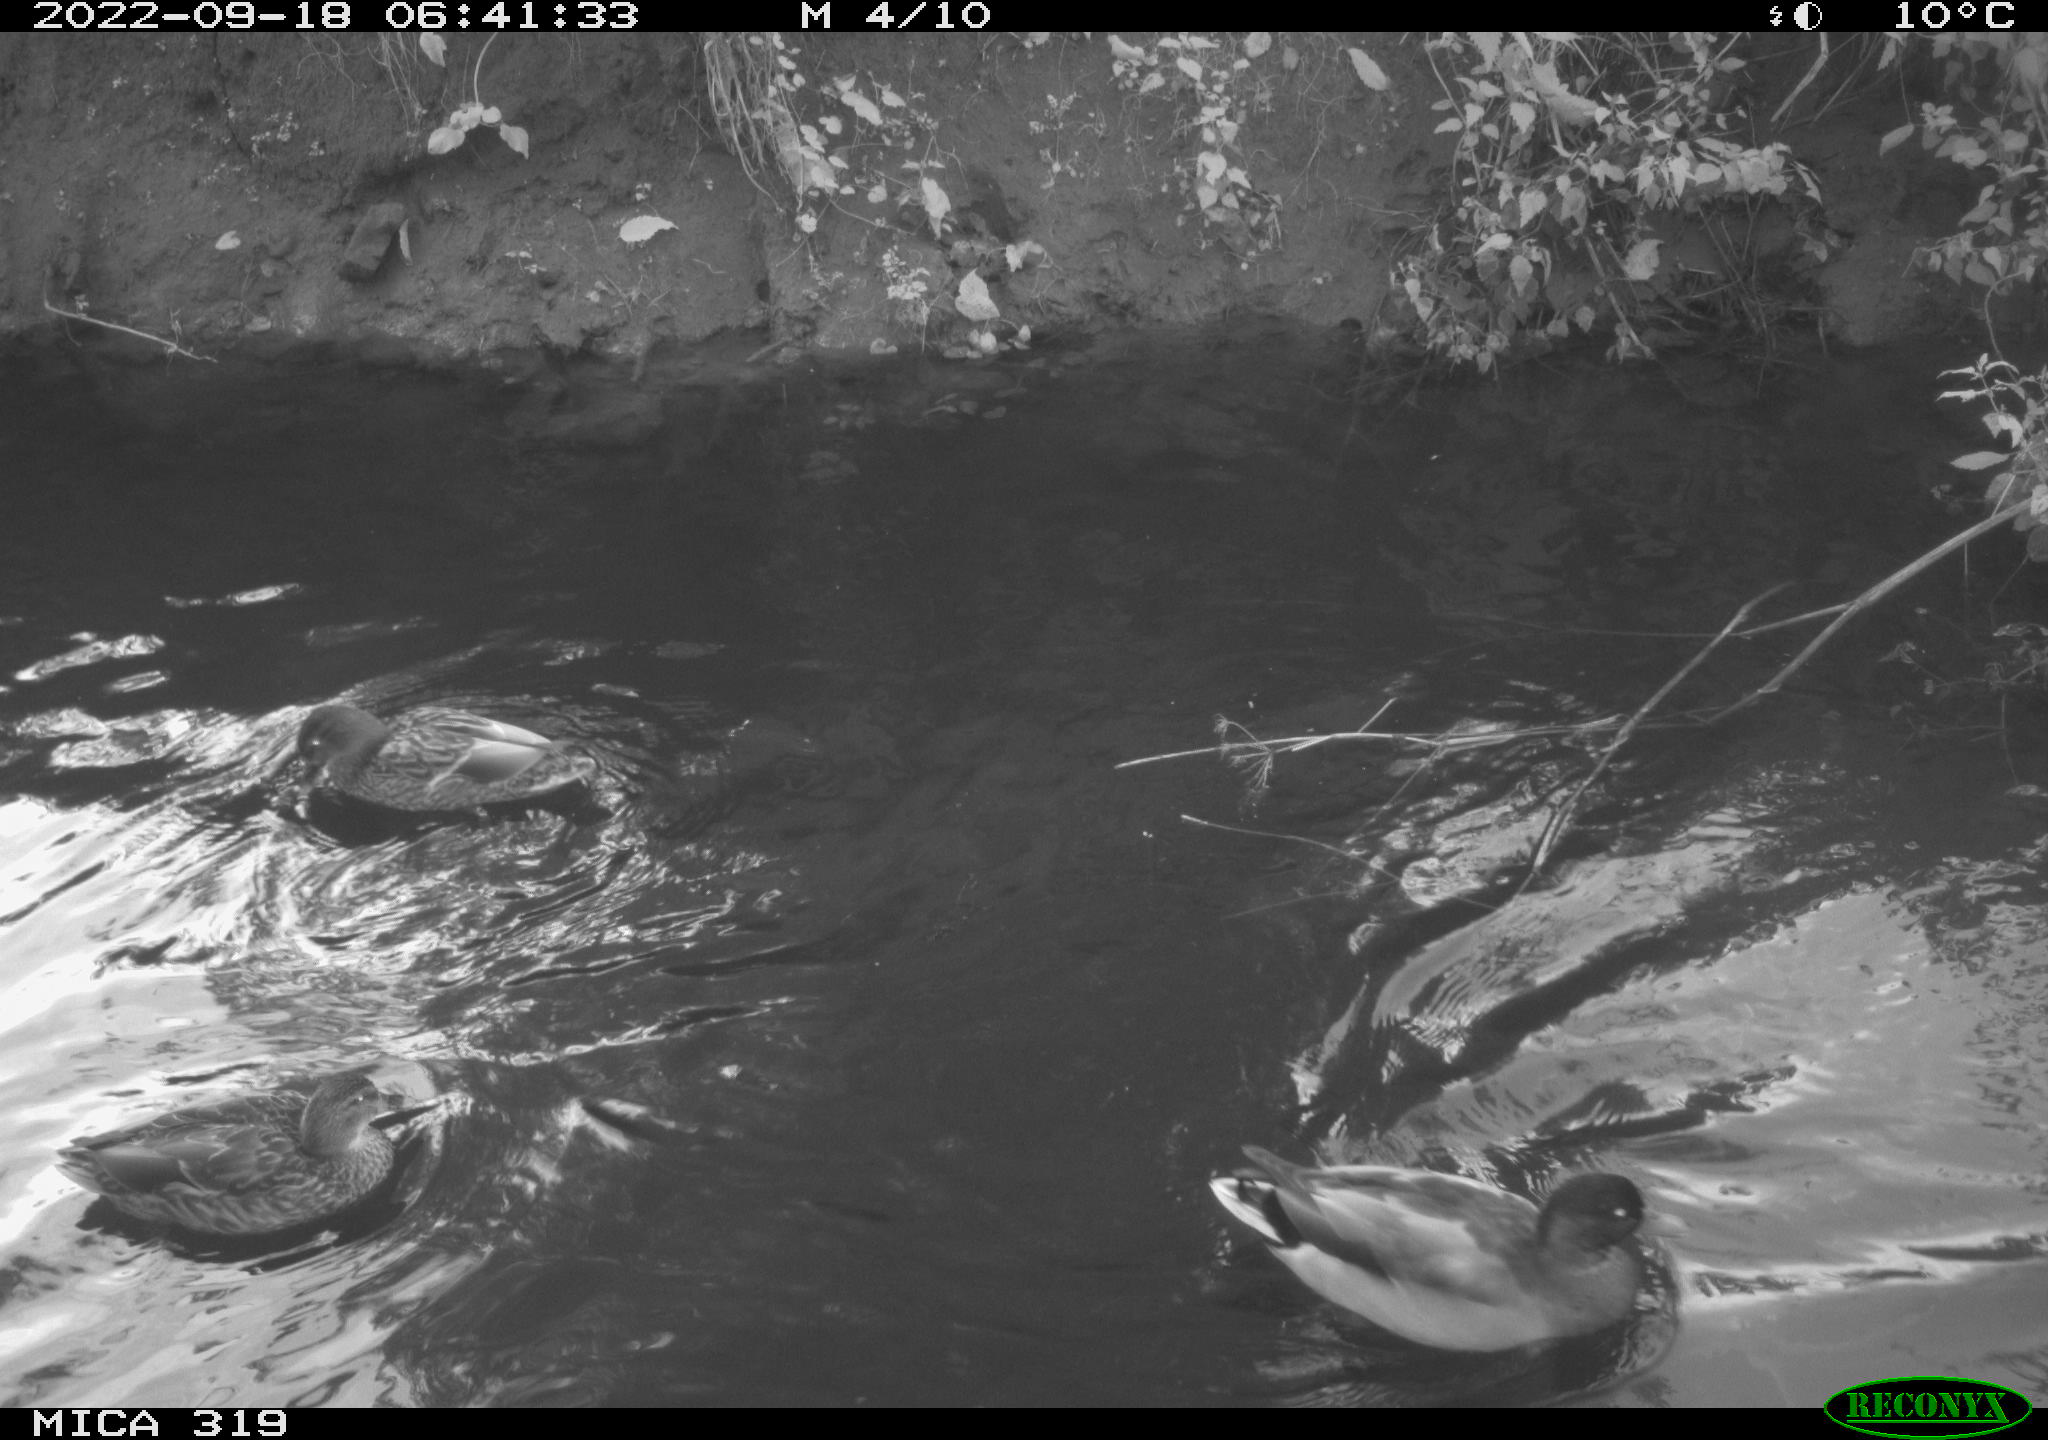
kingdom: Animalia
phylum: Chordata
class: Aves
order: Anseriformes
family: Anatidae
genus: Anas
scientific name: Anas
